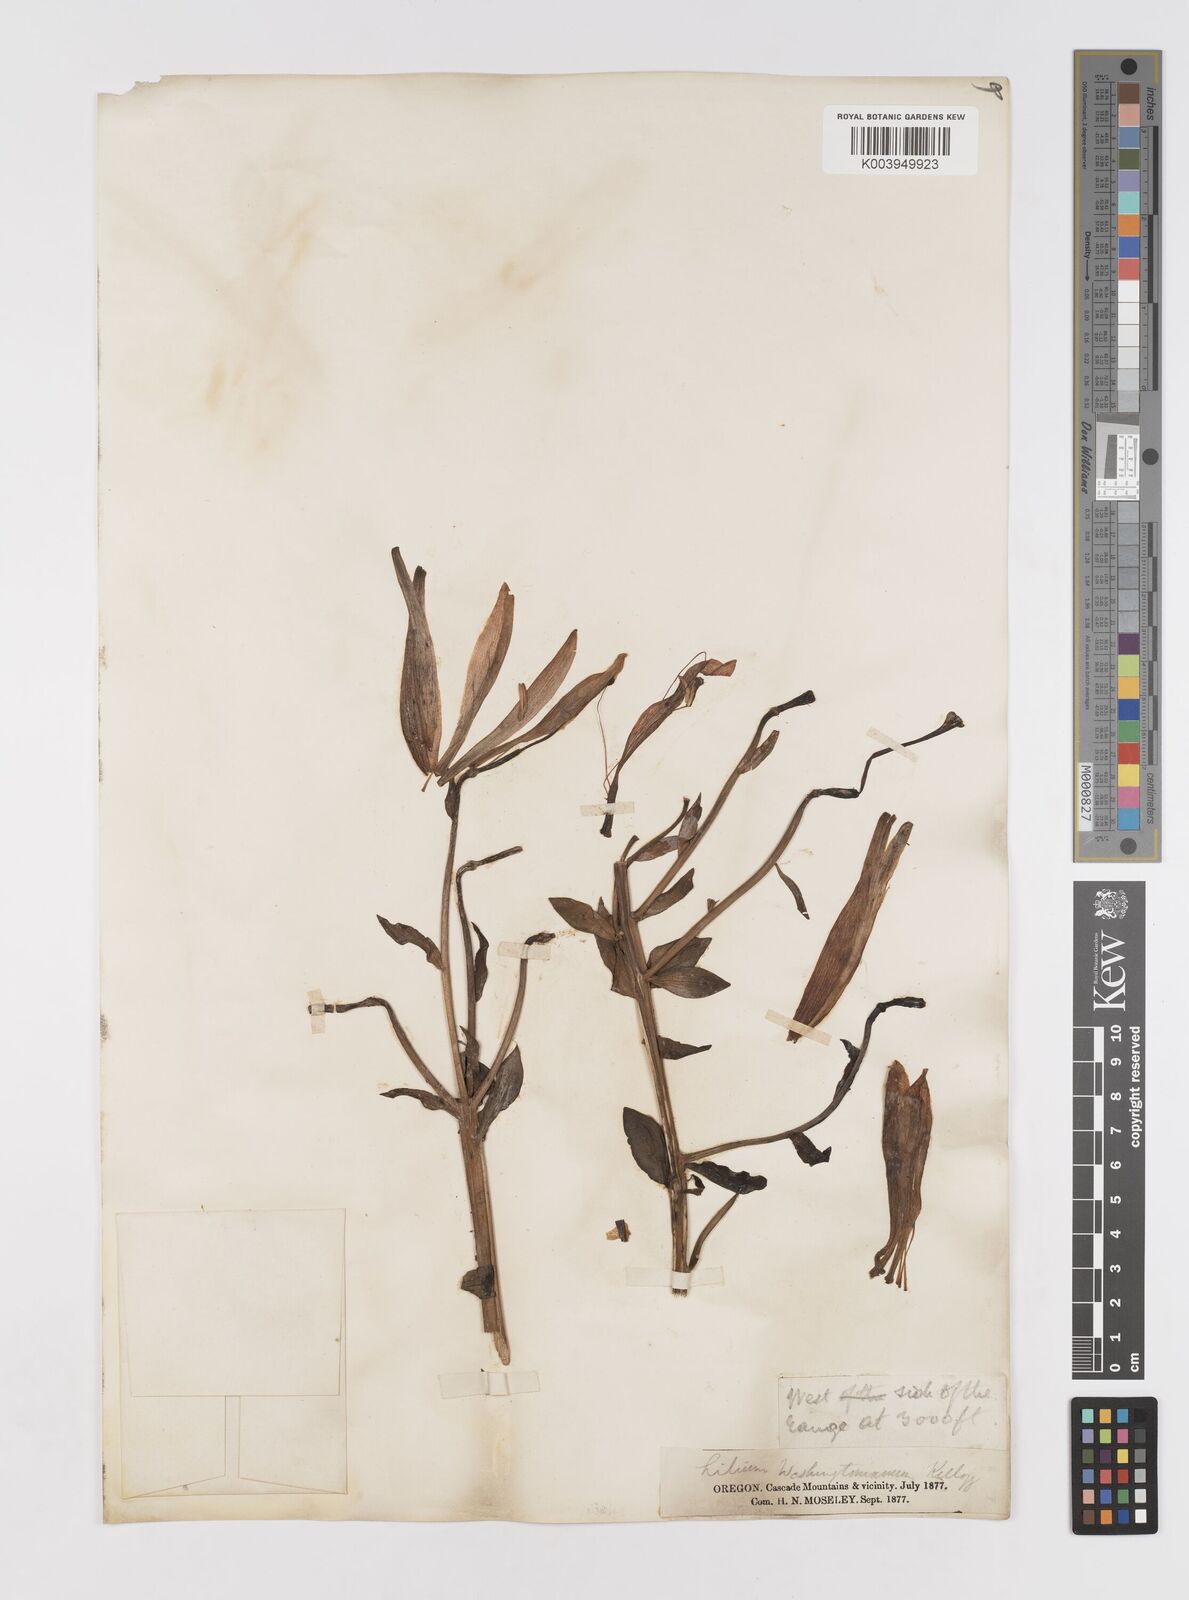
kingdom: Plantae
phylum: Tracheophyta
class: Liliopsida
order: Liliales
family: Liliaceae
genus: Lilium
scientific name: Lilium washingtonianum
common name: Washington lily
